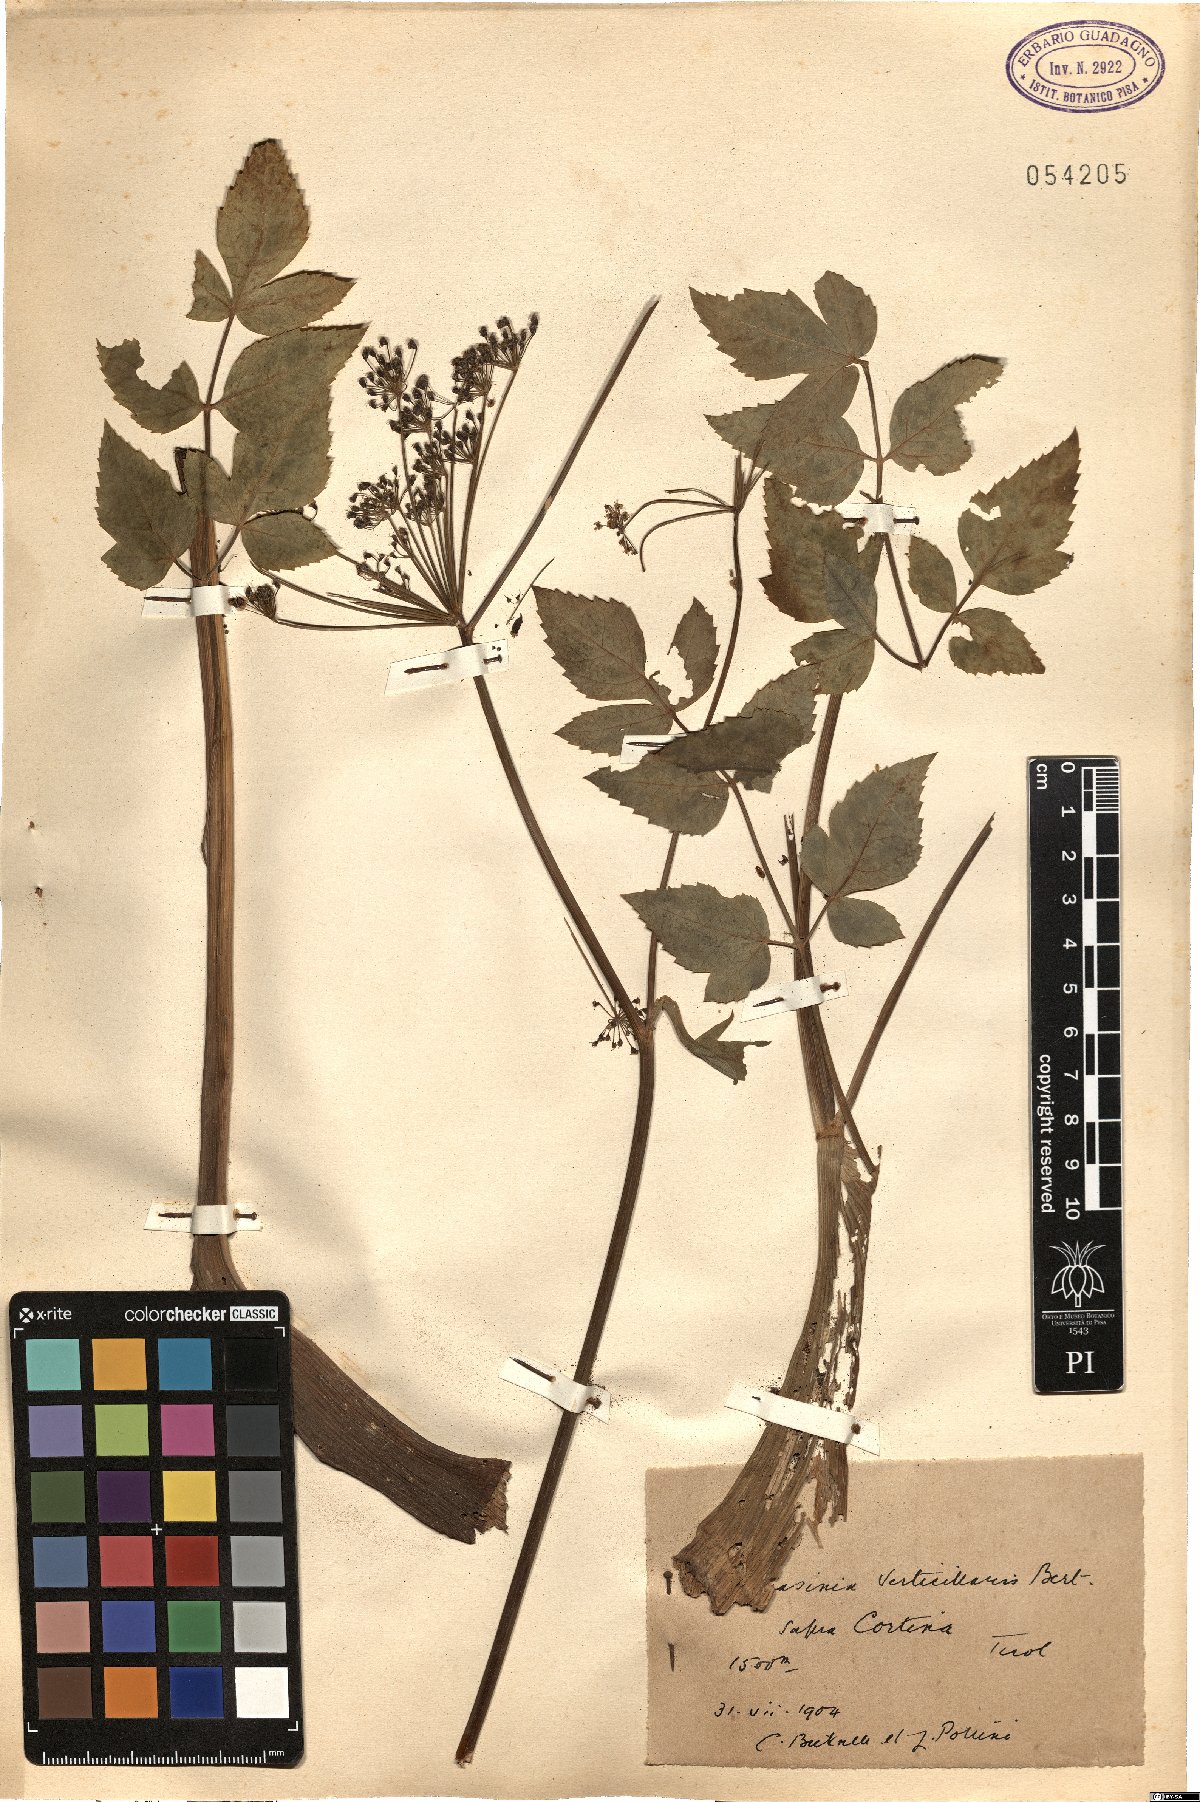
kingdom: Plantae
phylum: Tracheophyta
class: Magnoliopsida
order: Apiales
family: Apiaceae
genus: Tommasinia
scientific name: Tommasinia altissima
